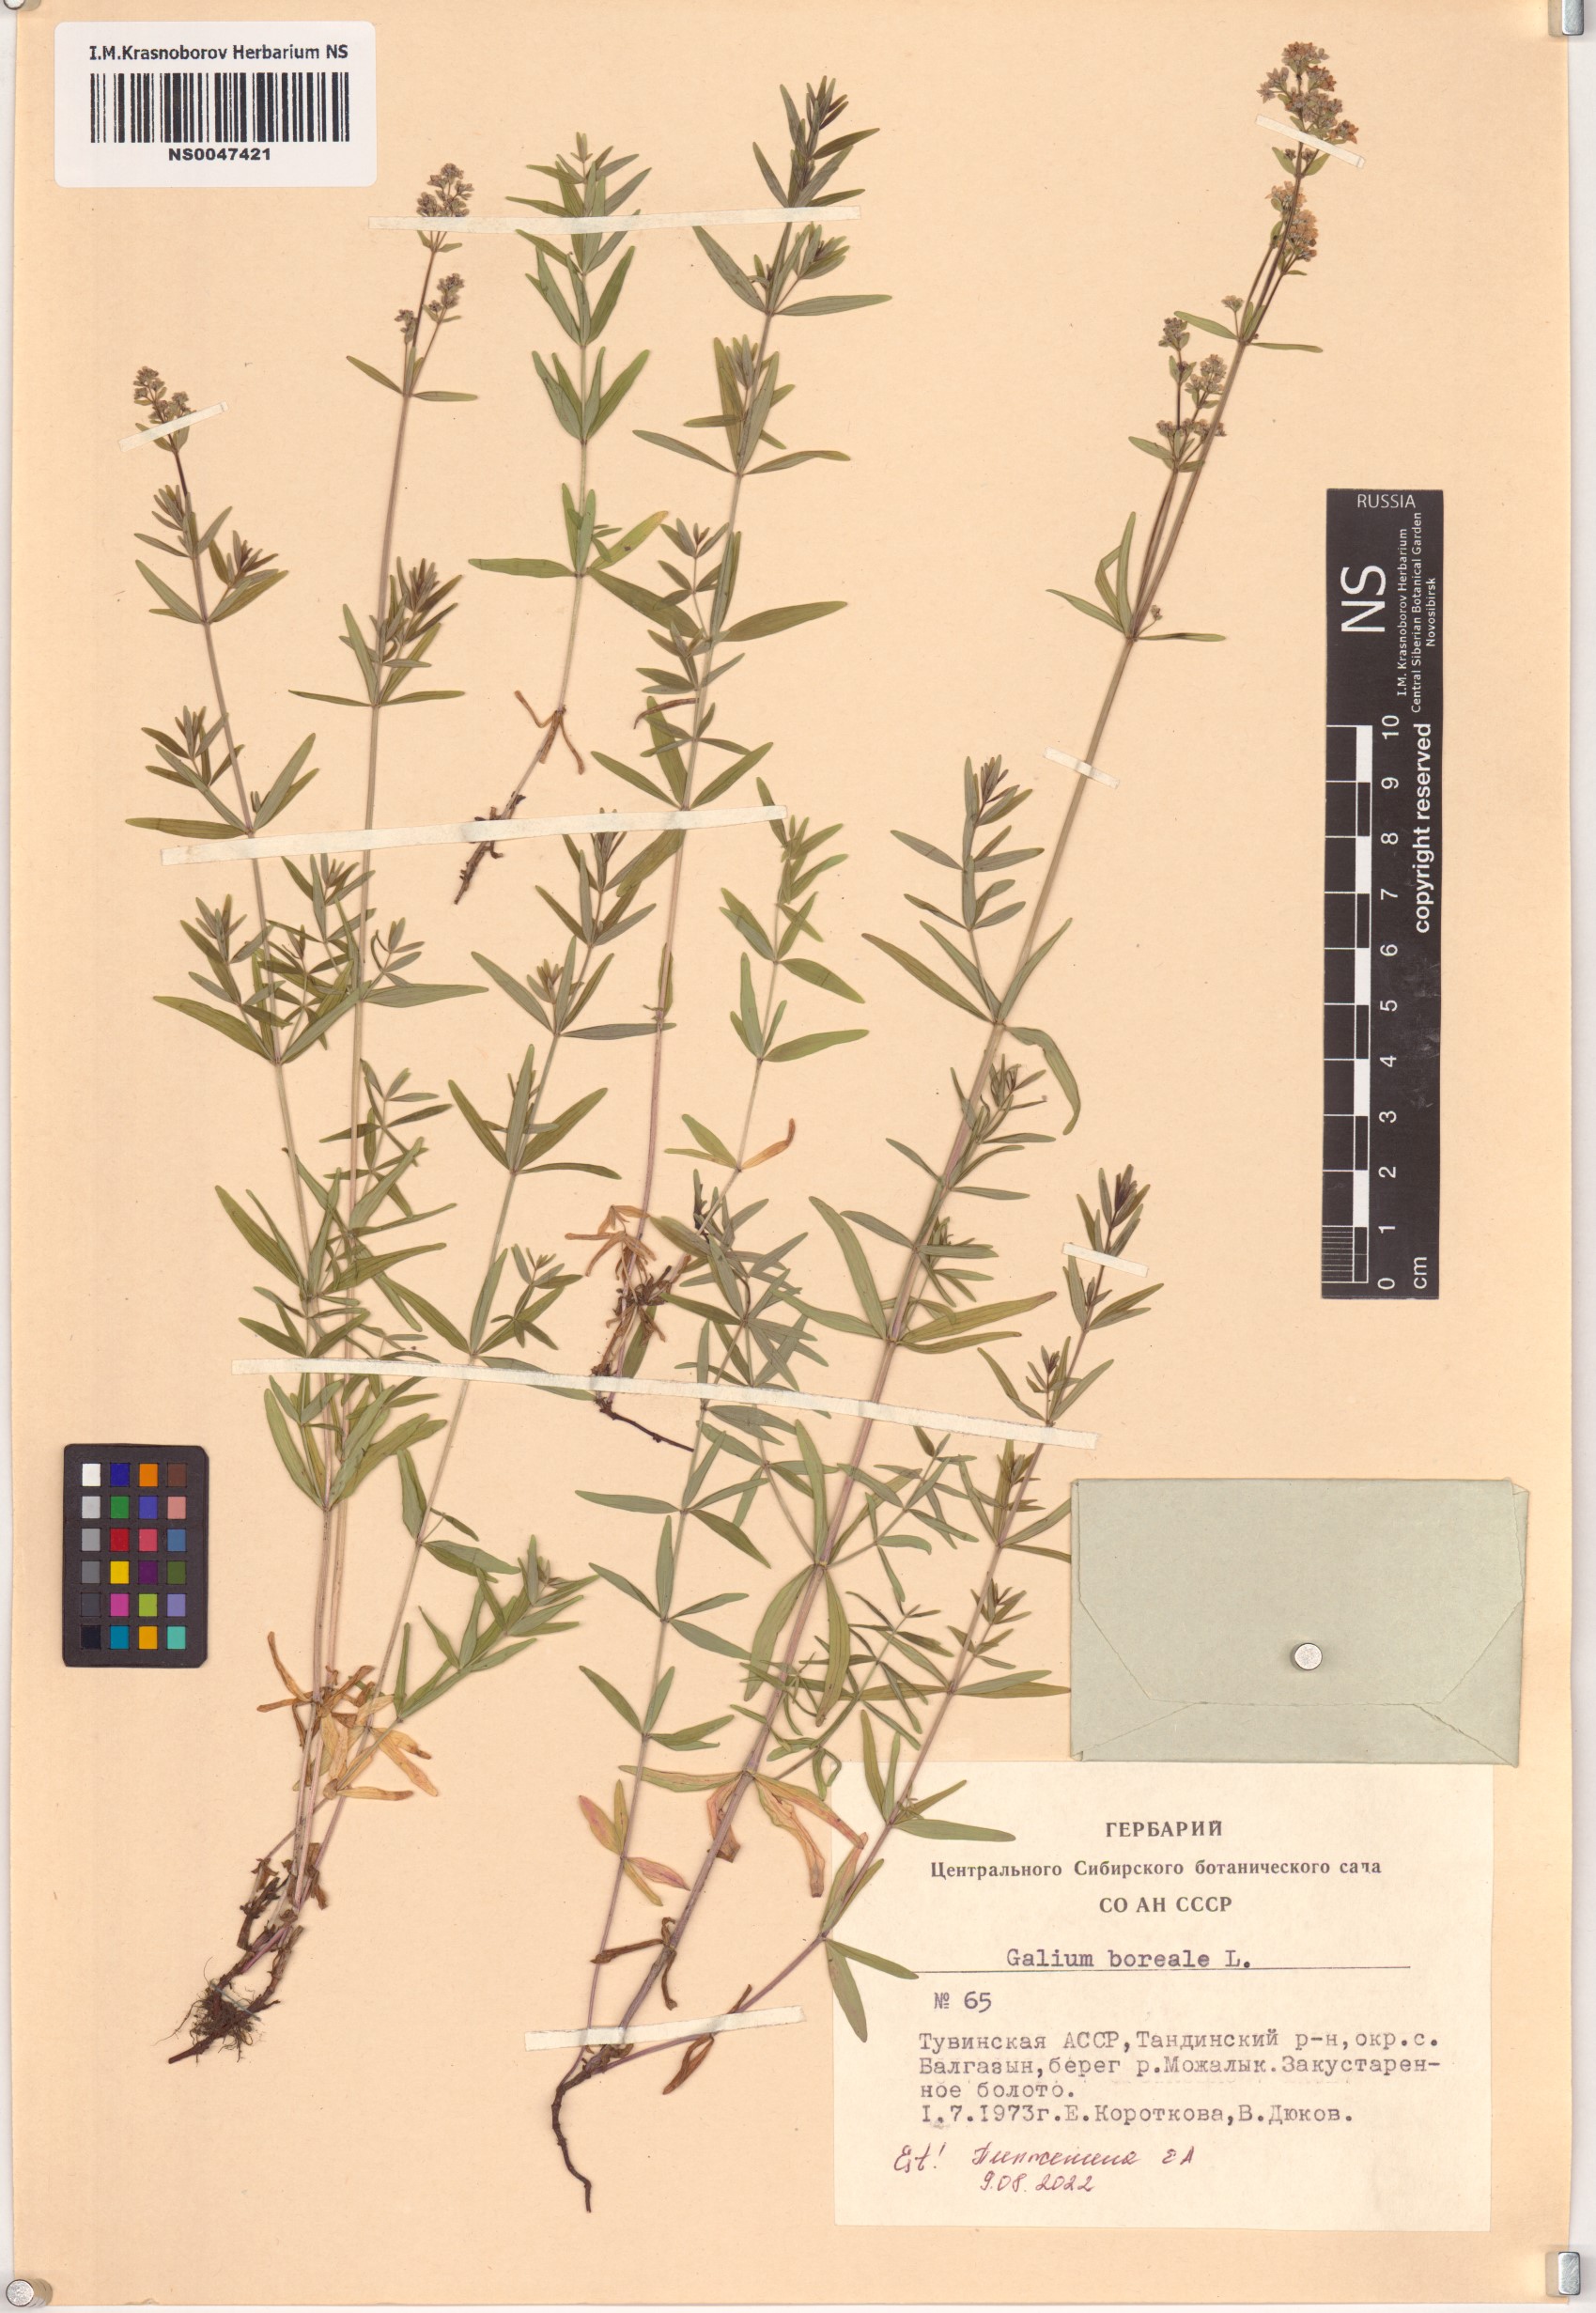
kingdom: Plantae
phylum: Tracheophyta
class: Magnoliopsida
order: Gentianales
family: Rubiaceae
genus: Galium
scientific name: Galium boreale
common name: Northern bedstraw
